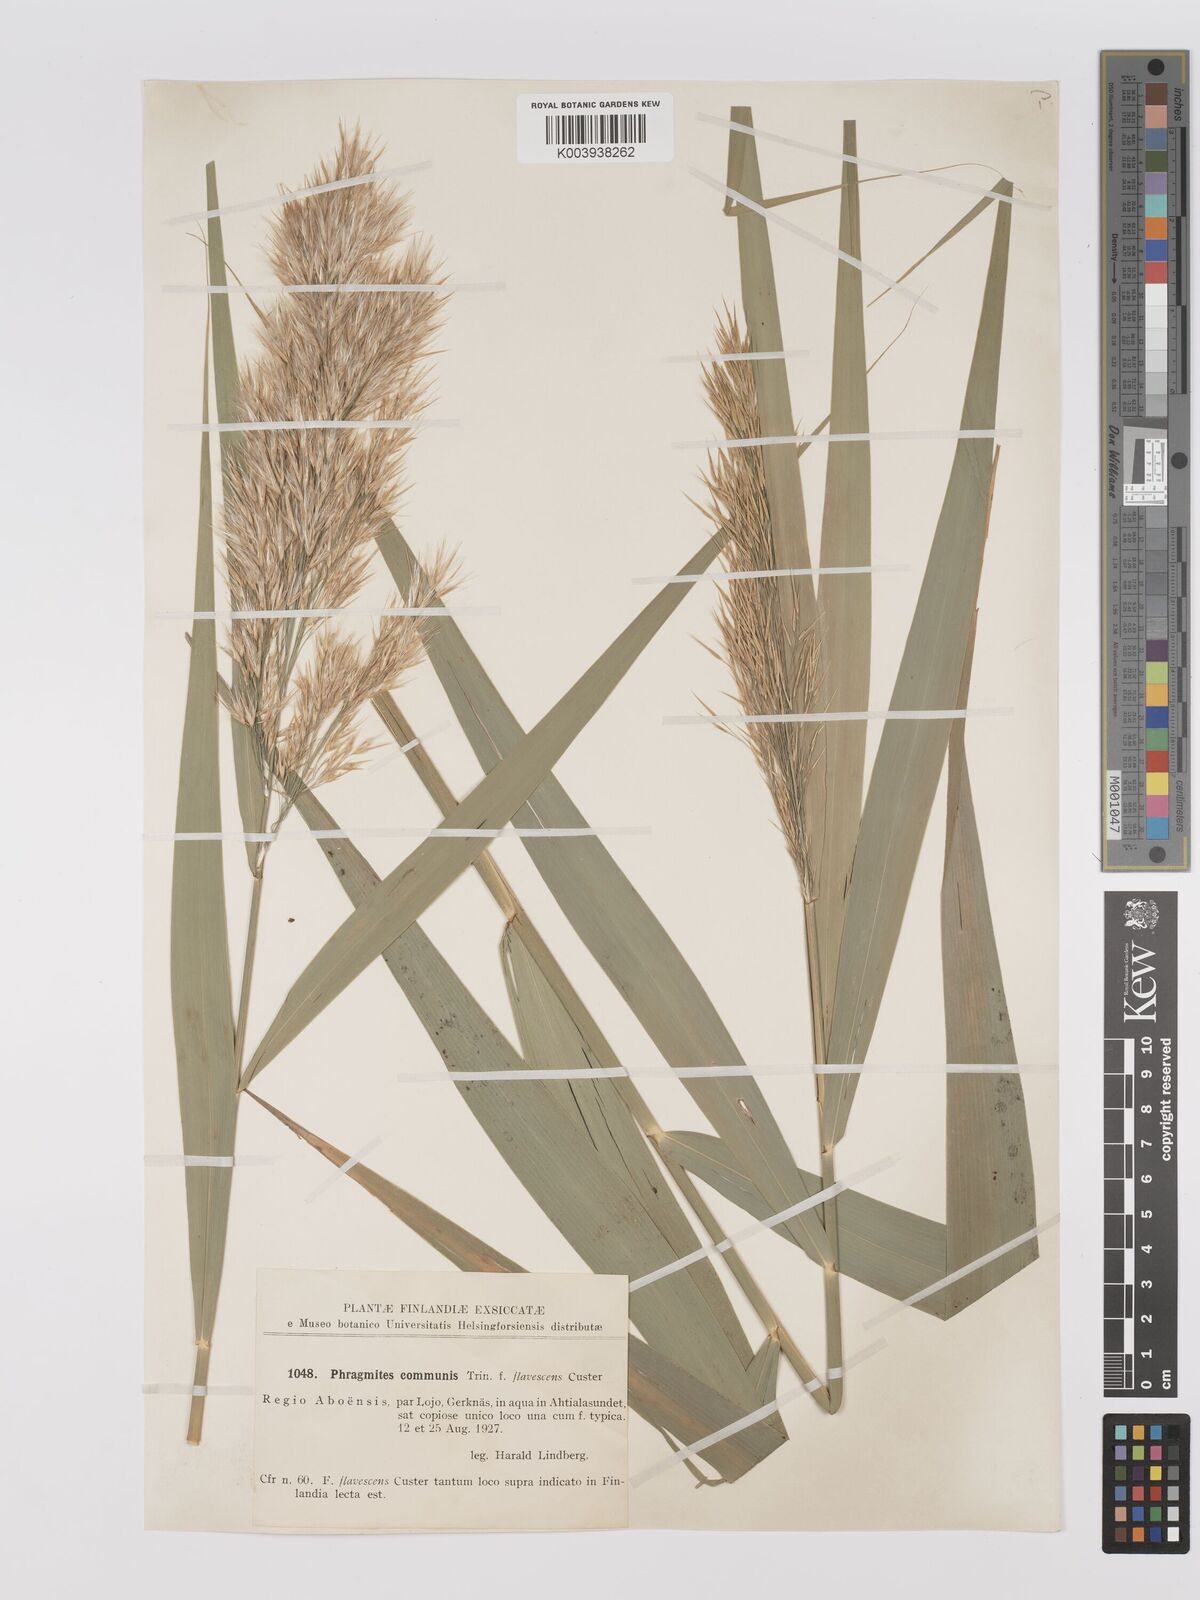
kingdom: Plantae
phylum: Tracheophyta
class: Liliopsida
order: Poales
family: Poaceae
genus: Phragmites
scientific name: Phragmites australis
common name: Common reed
